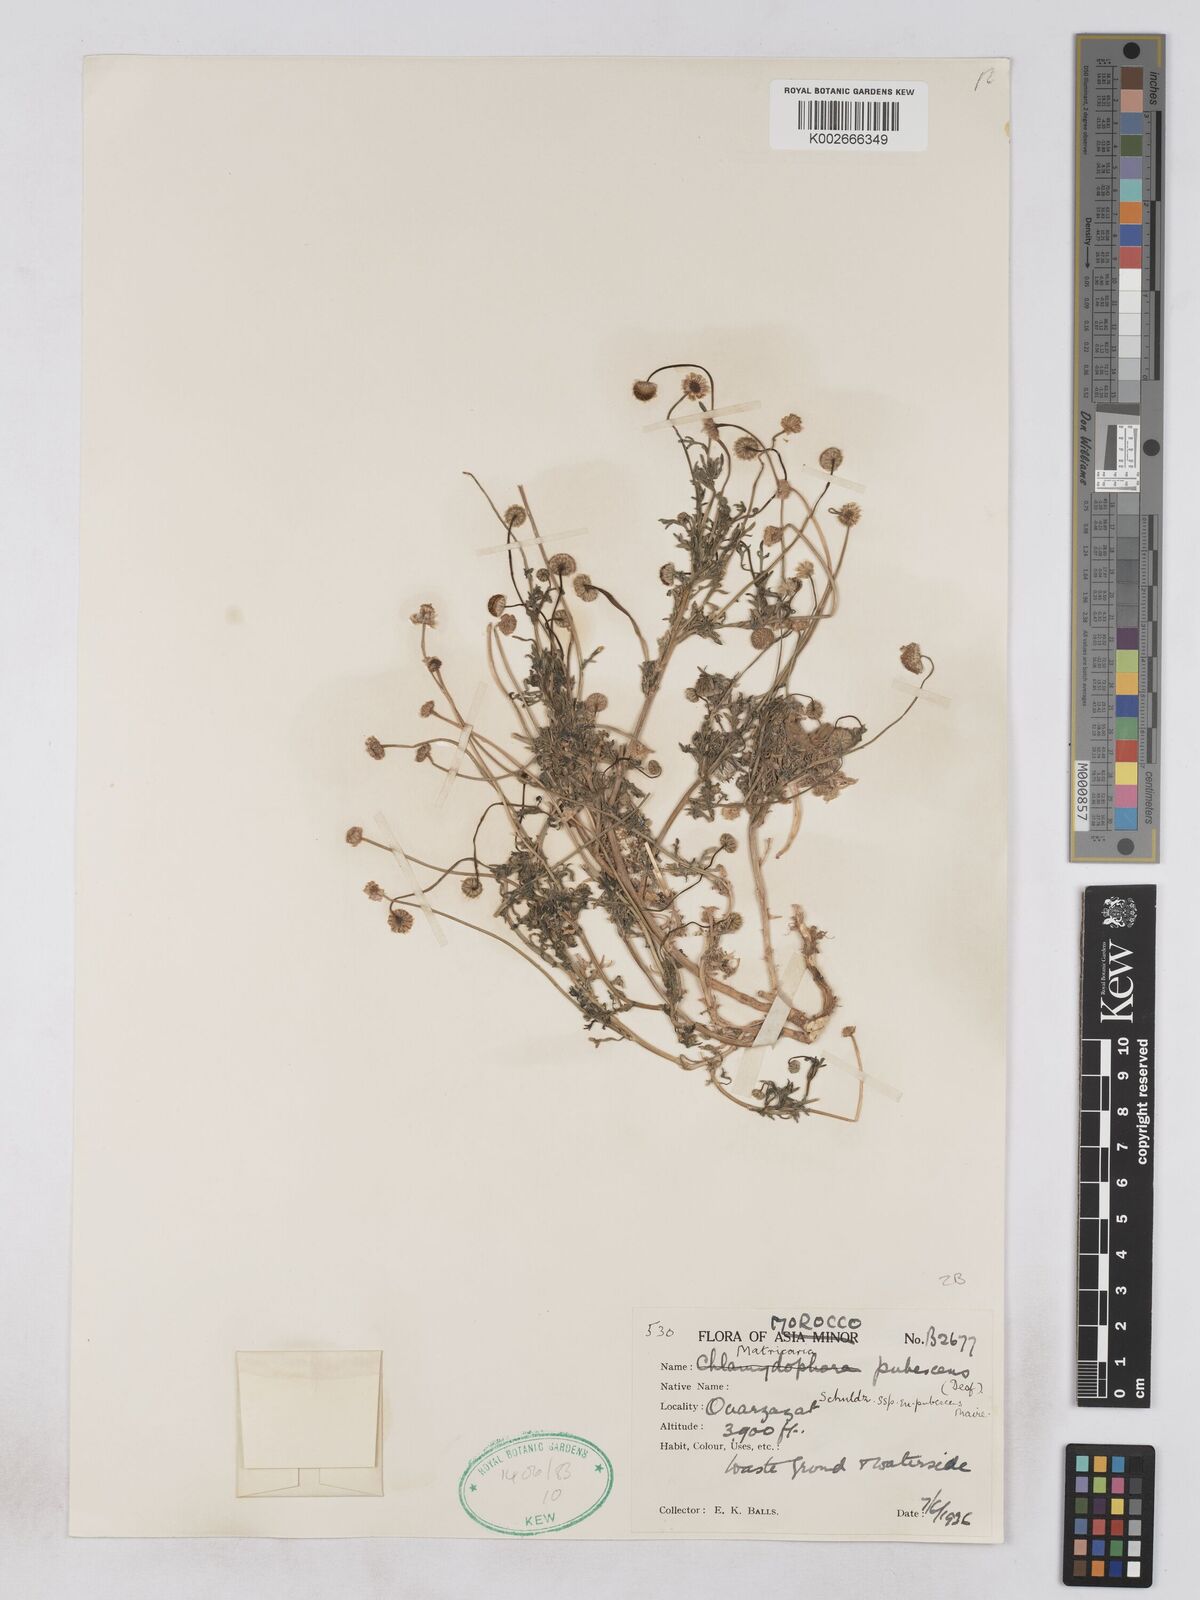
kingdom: Plantae
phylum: Tracheophyta
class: Magnoliopsida
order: Asterales
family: Asteraceae
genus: Otoglyphis
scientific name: Otoglyphis pubescens
